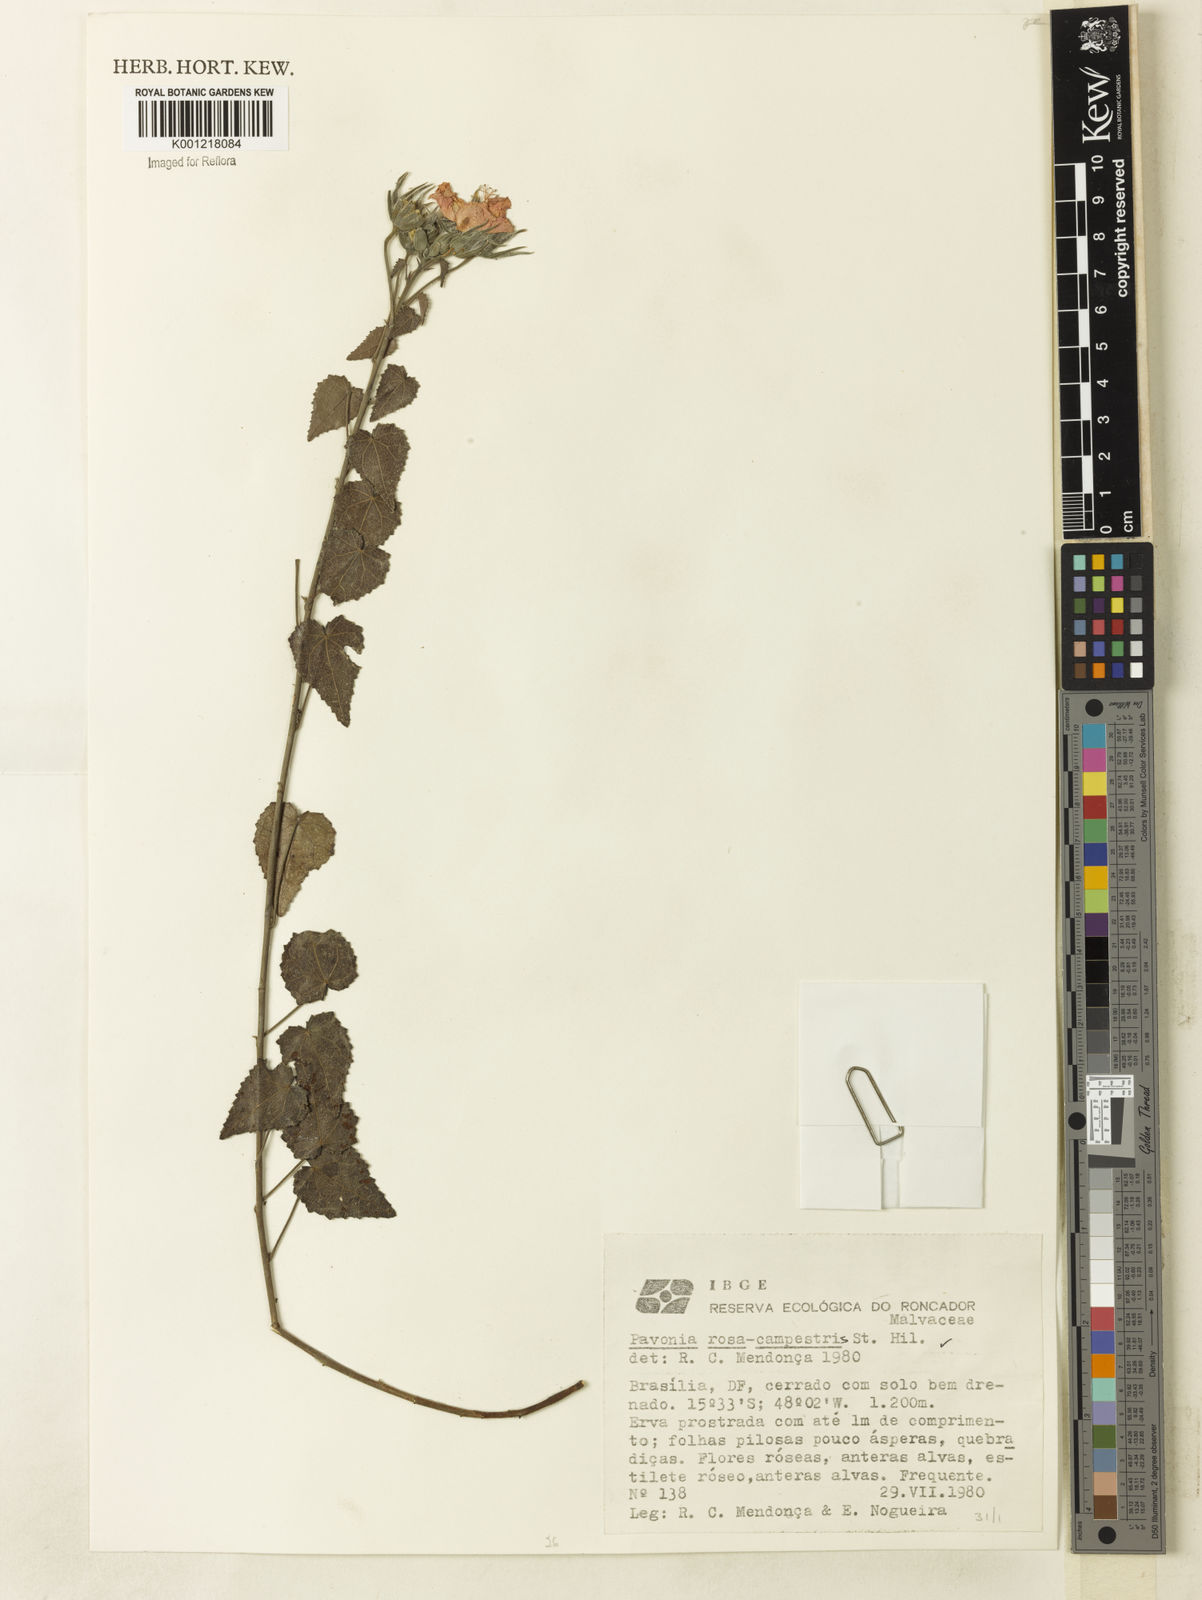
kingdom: Plantae
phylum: Tracheophyta
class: Magnoliopsida
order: Malvales
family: Malvaceae
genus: Pavonia
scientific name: Pavonia rosa-campestris
